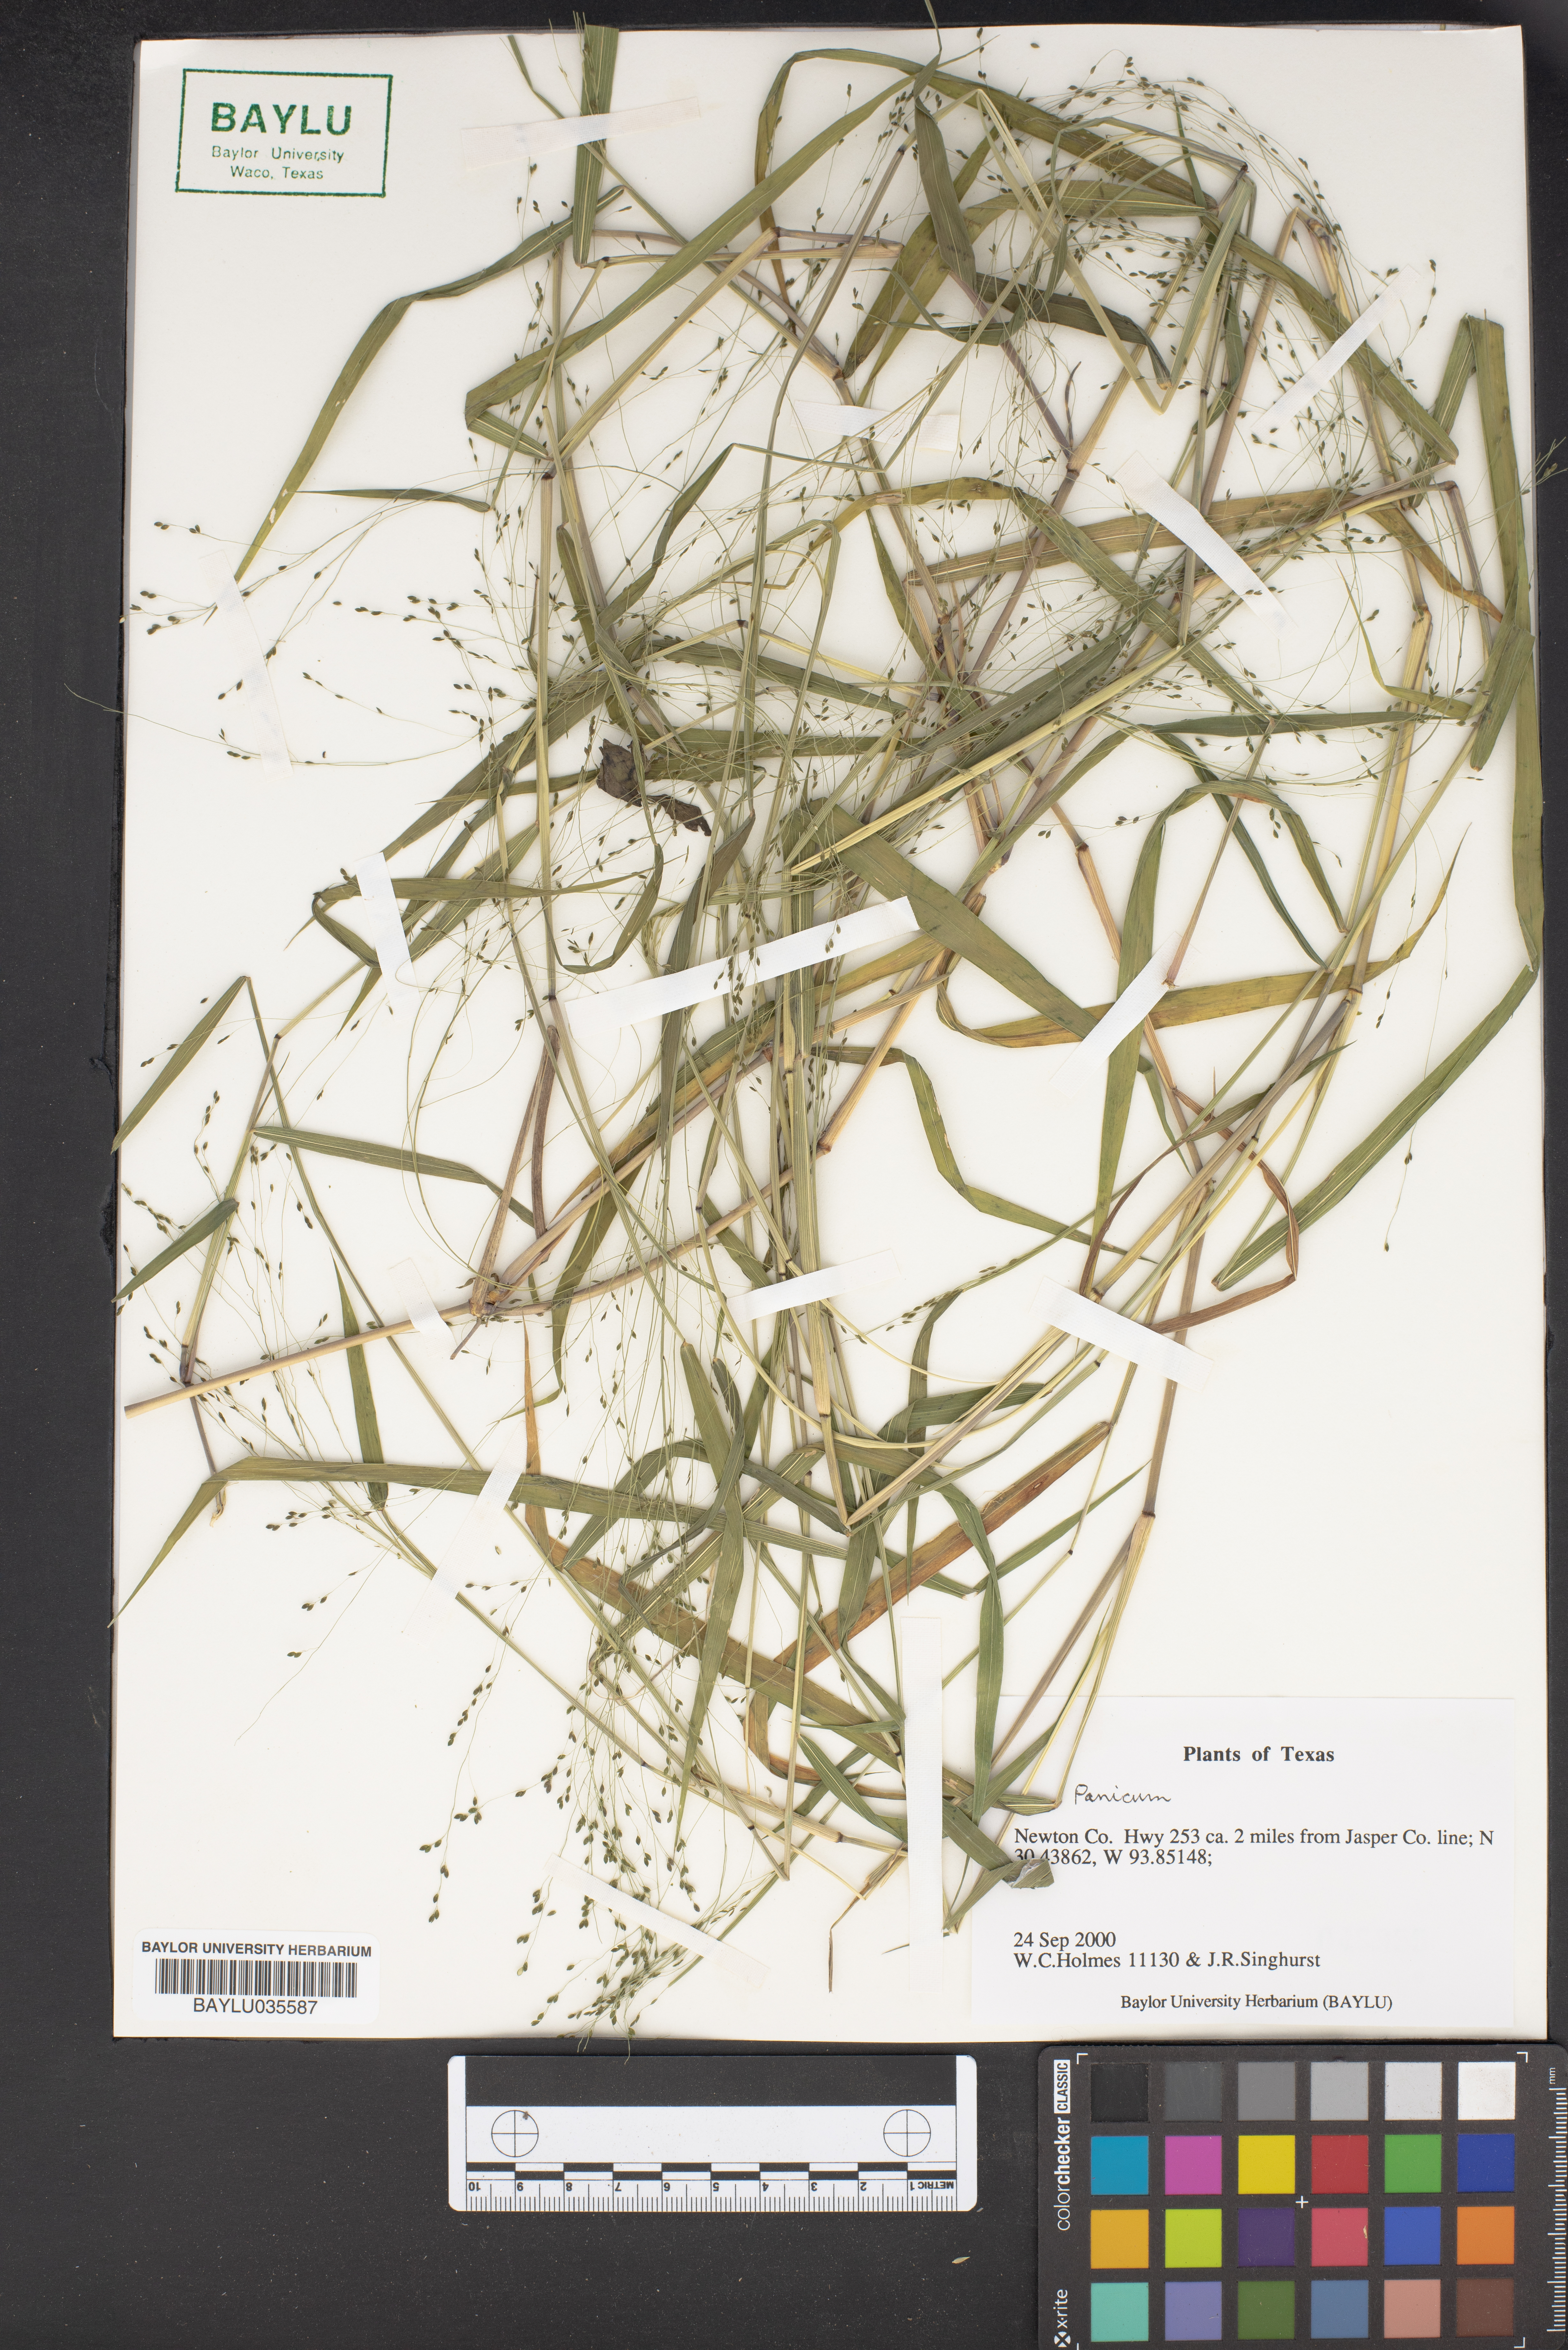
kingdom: Plantae
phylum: Tracheophyta
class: Liliopsida
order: Poales
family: Poaceae
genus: Panicum
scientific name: Panicum
